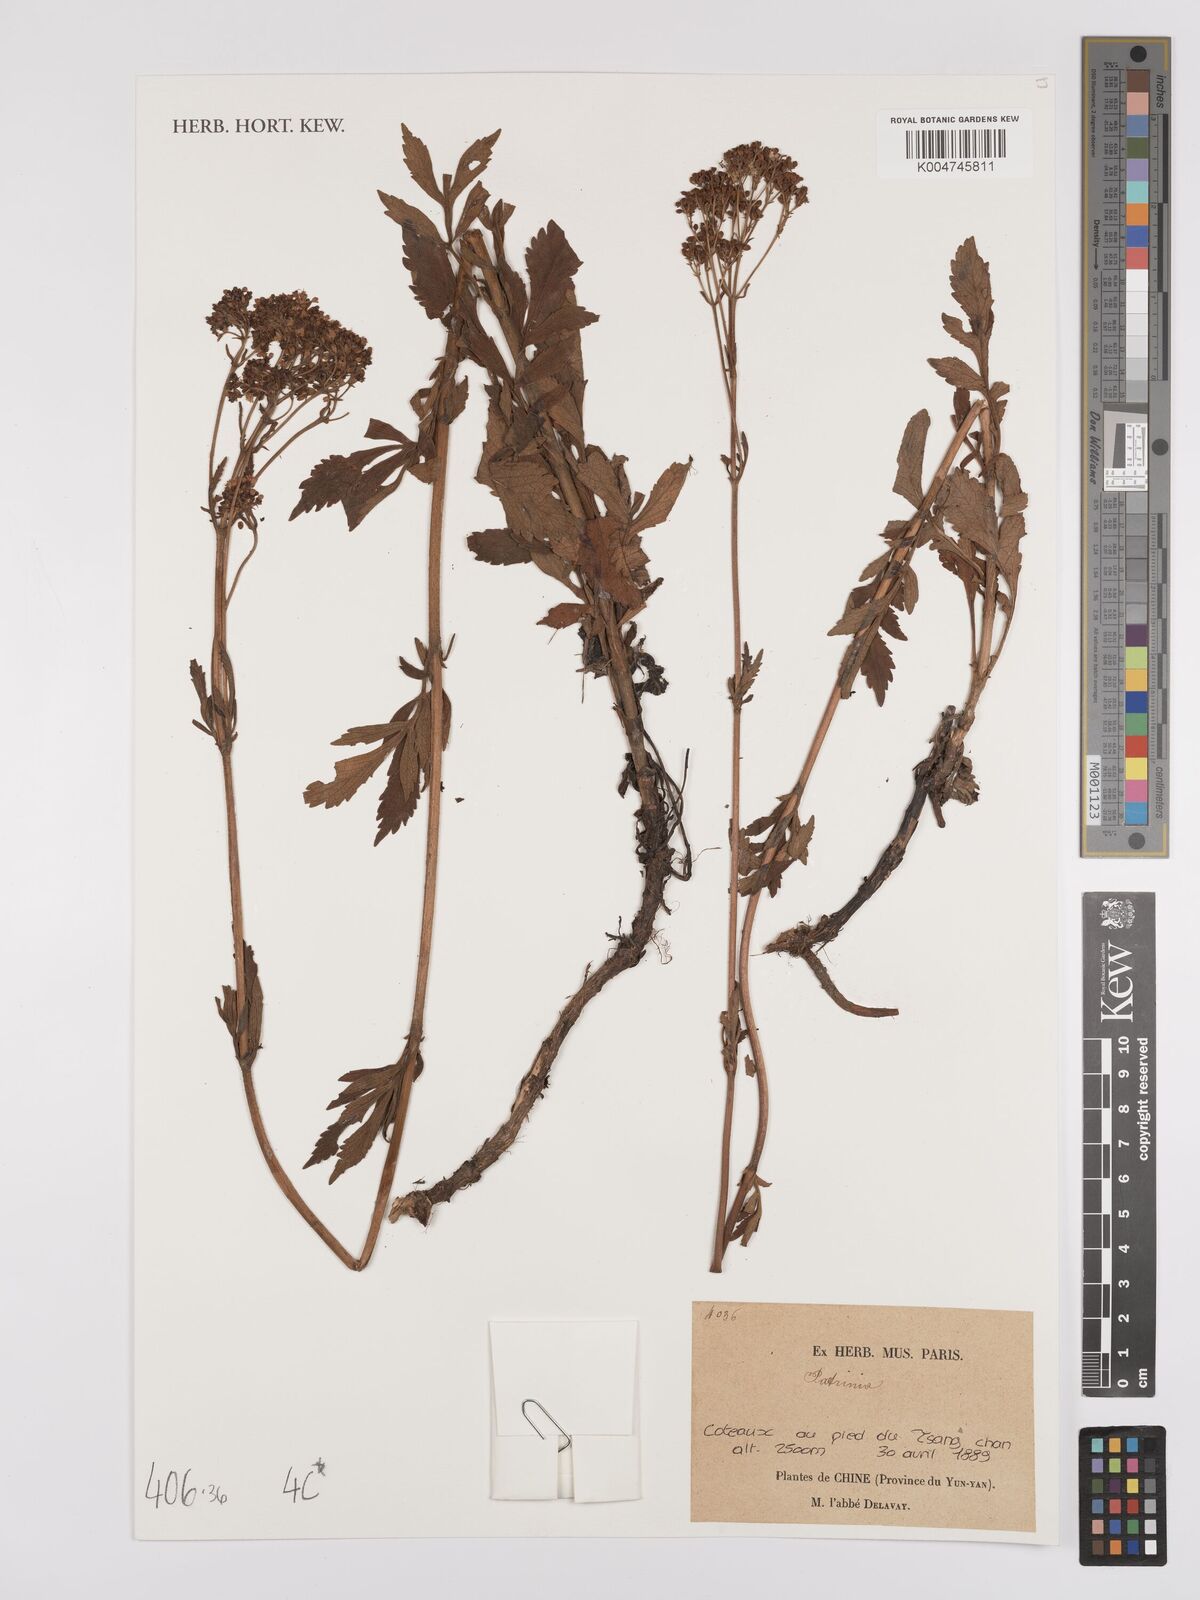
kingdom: Plantae
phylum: Tracheophyta
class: Magnoliopsida
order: Dipsacales
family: Caprifoliaceae
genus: Patrinia
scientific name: Patrinia
